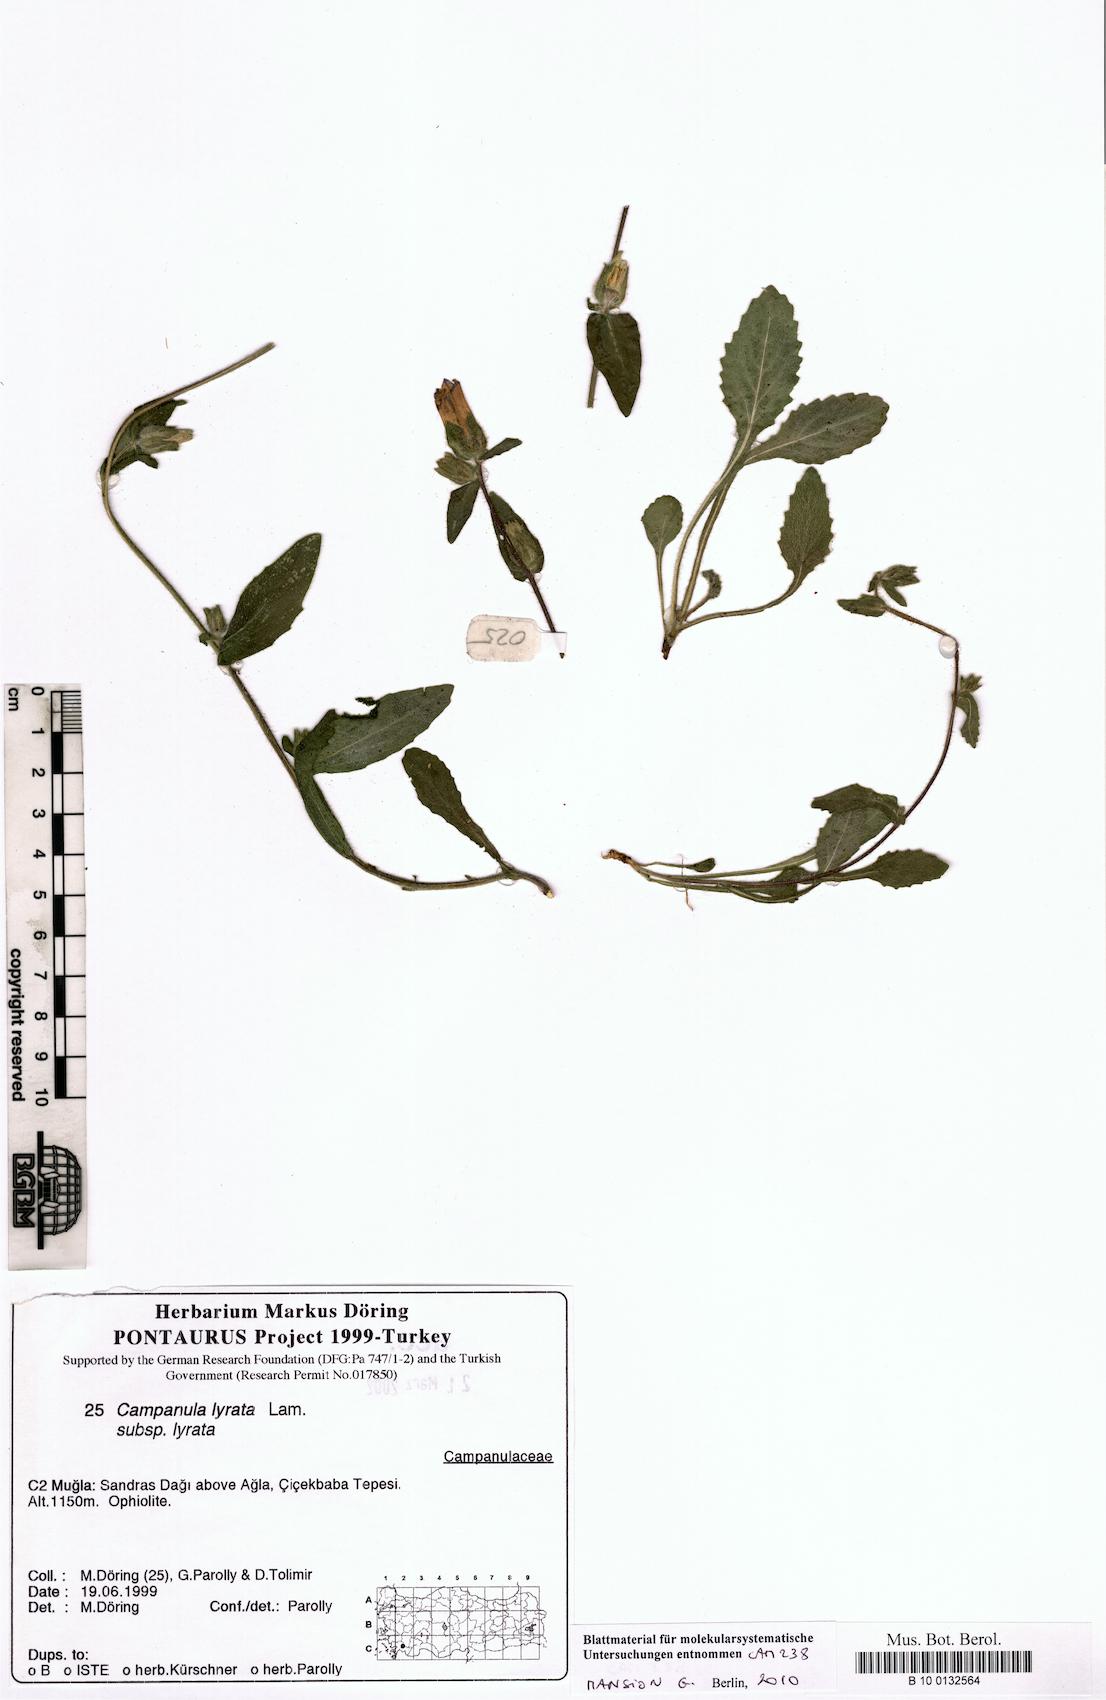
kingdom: Plantae
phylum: Tracheophyta
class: Magnoliopsida
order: Asterales
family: Campanulaceae
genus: Campanula
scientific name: Campanula lyrata
